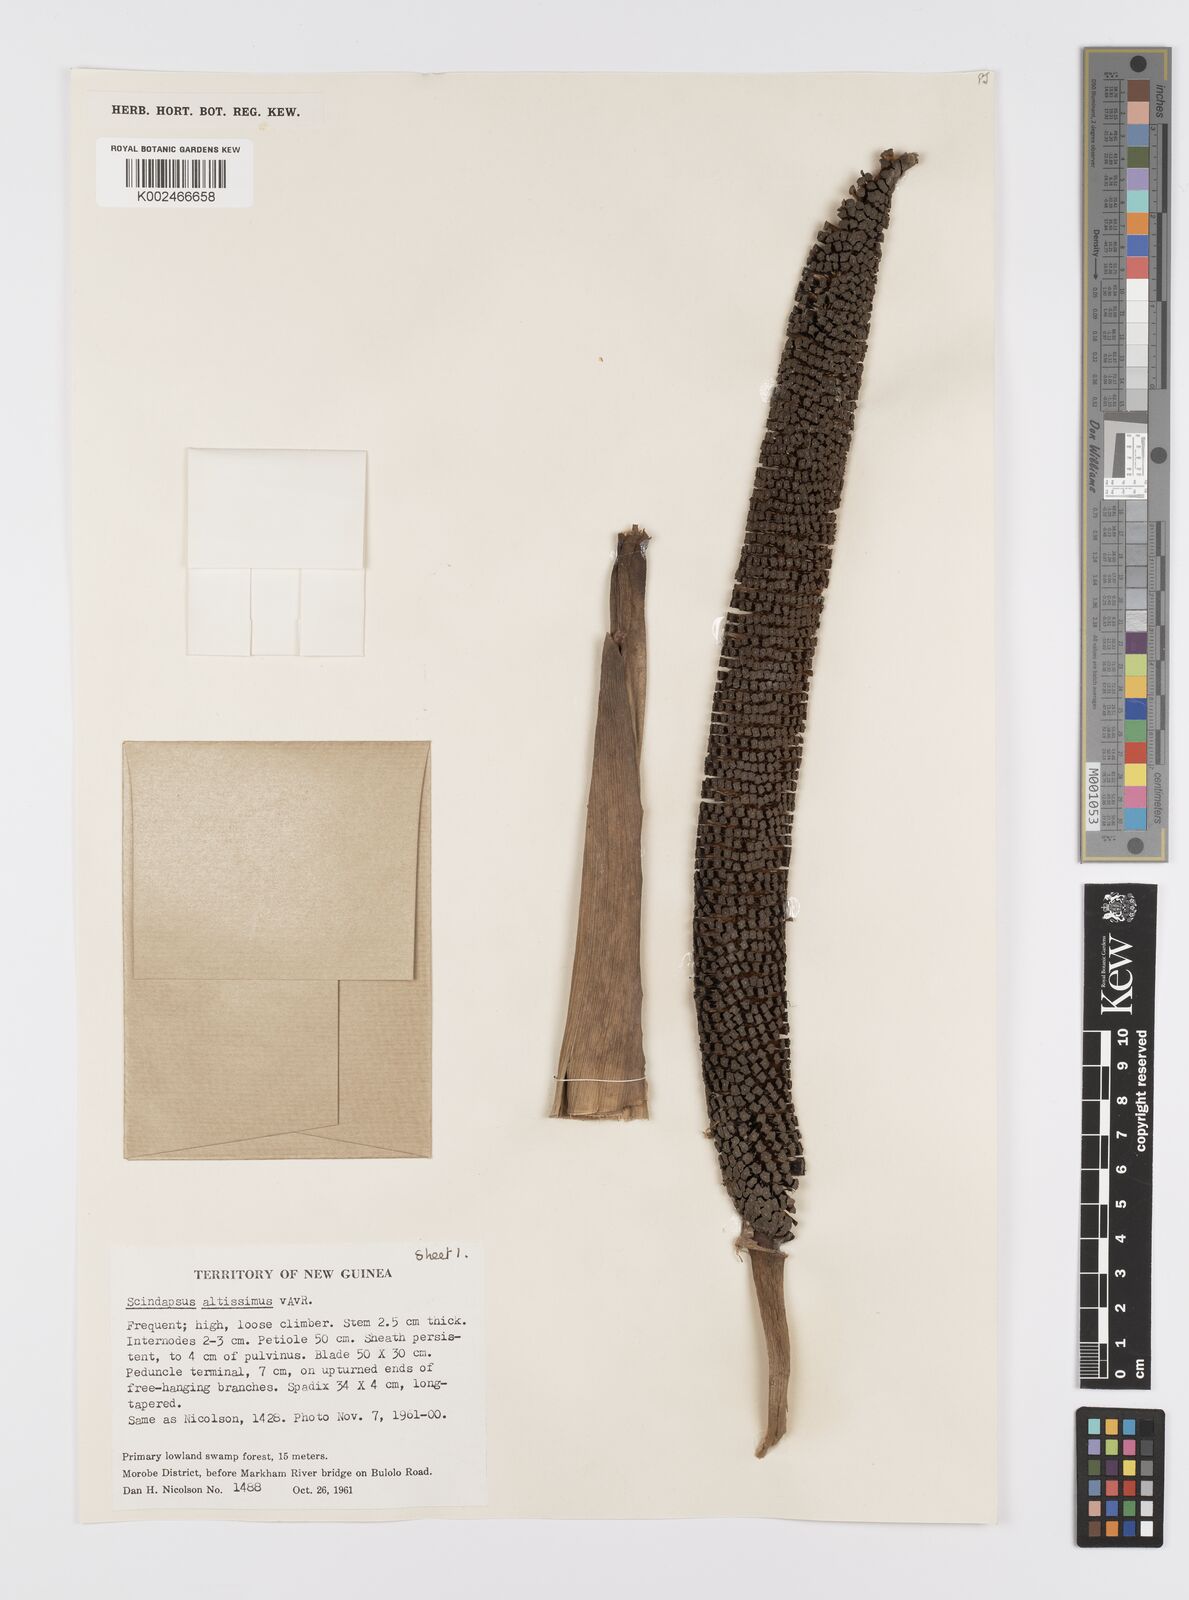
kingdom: Plantae
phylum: Tracheophyta
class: Liliopsida
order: Alismatales
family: Araceae
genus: Scindapsus
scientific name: Scindapsus altissimus
